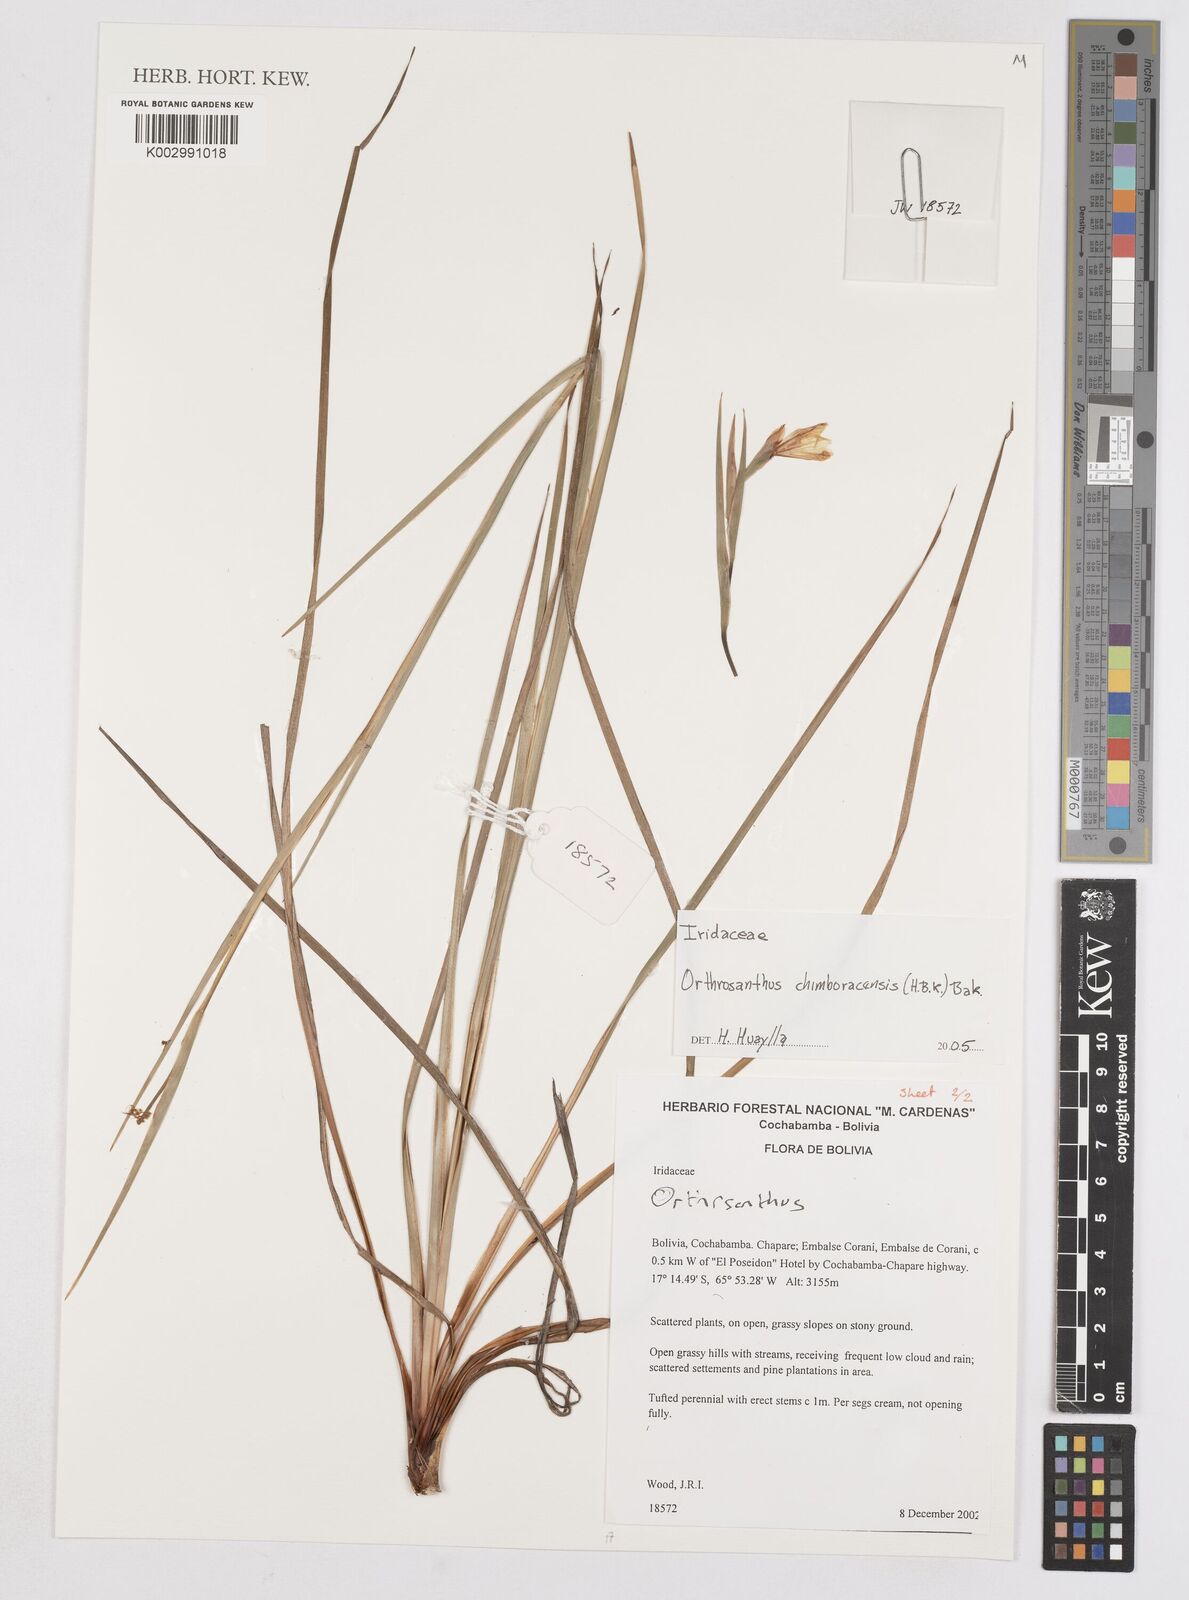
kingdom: Plantae
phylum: Tracheophyta
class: Liliopsida
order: Asparagales
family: Iridaceae
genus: Orthrosanthus
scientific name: Orthrosanthus chimboracensis
